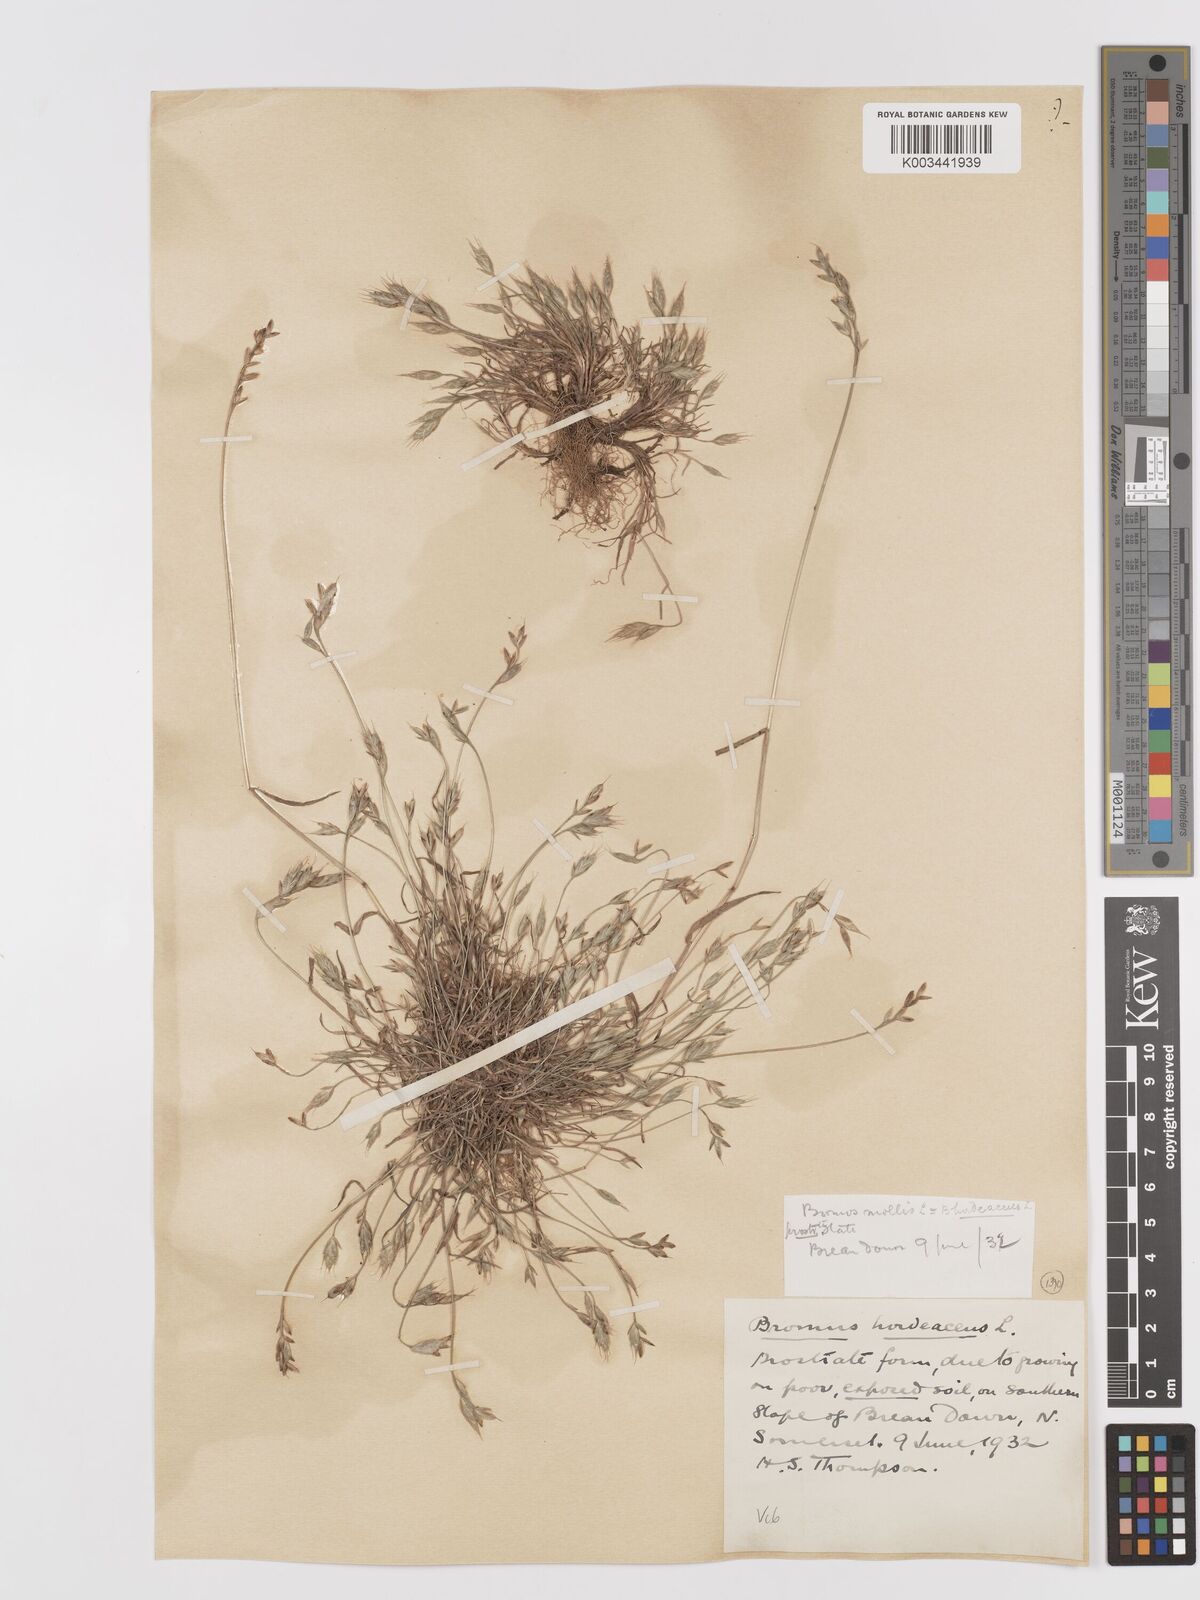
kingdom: Plantae
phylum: Tracheophyta
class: Liliopsida
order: Poales
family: Poaceae
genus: Bromus
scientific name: Bromus hordeaceus
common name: Soft brome
